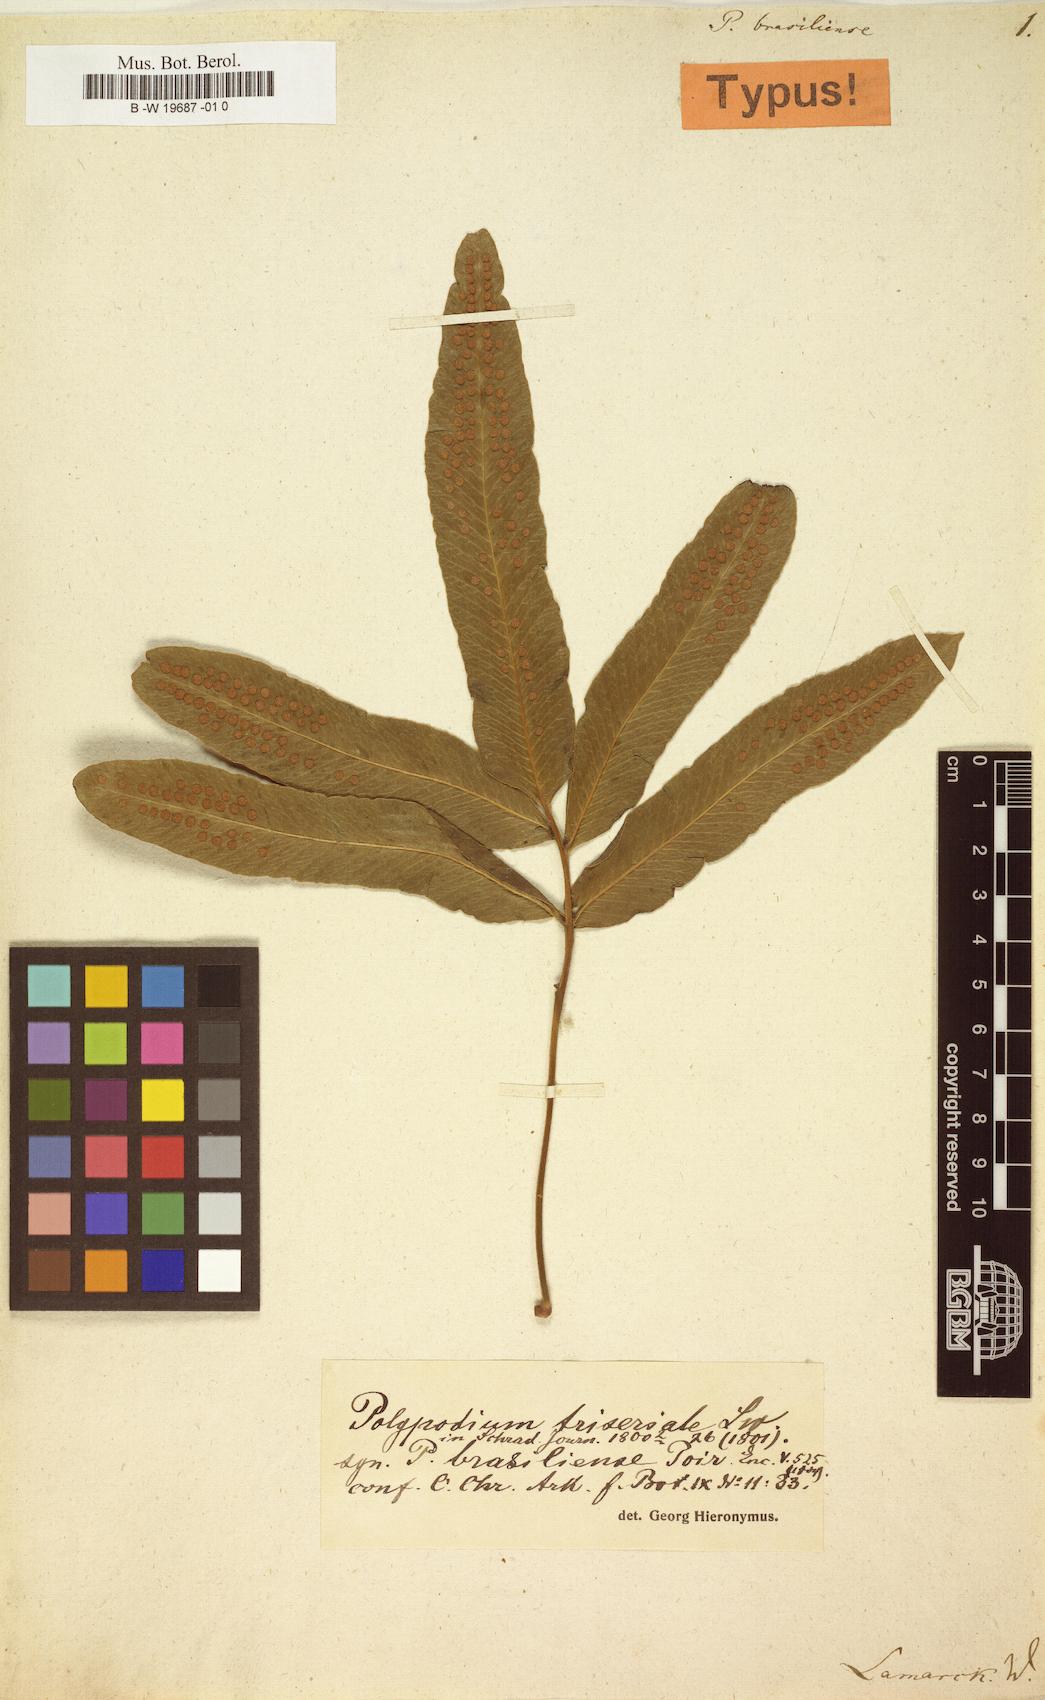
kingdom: Plantae
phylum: Tracheophyta
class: Polypodiopsida
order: Polypodiales
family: Polypodiaceae
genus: Serpocaulon
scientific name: Serpocaulon triseriale
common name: Angle-vein fern
